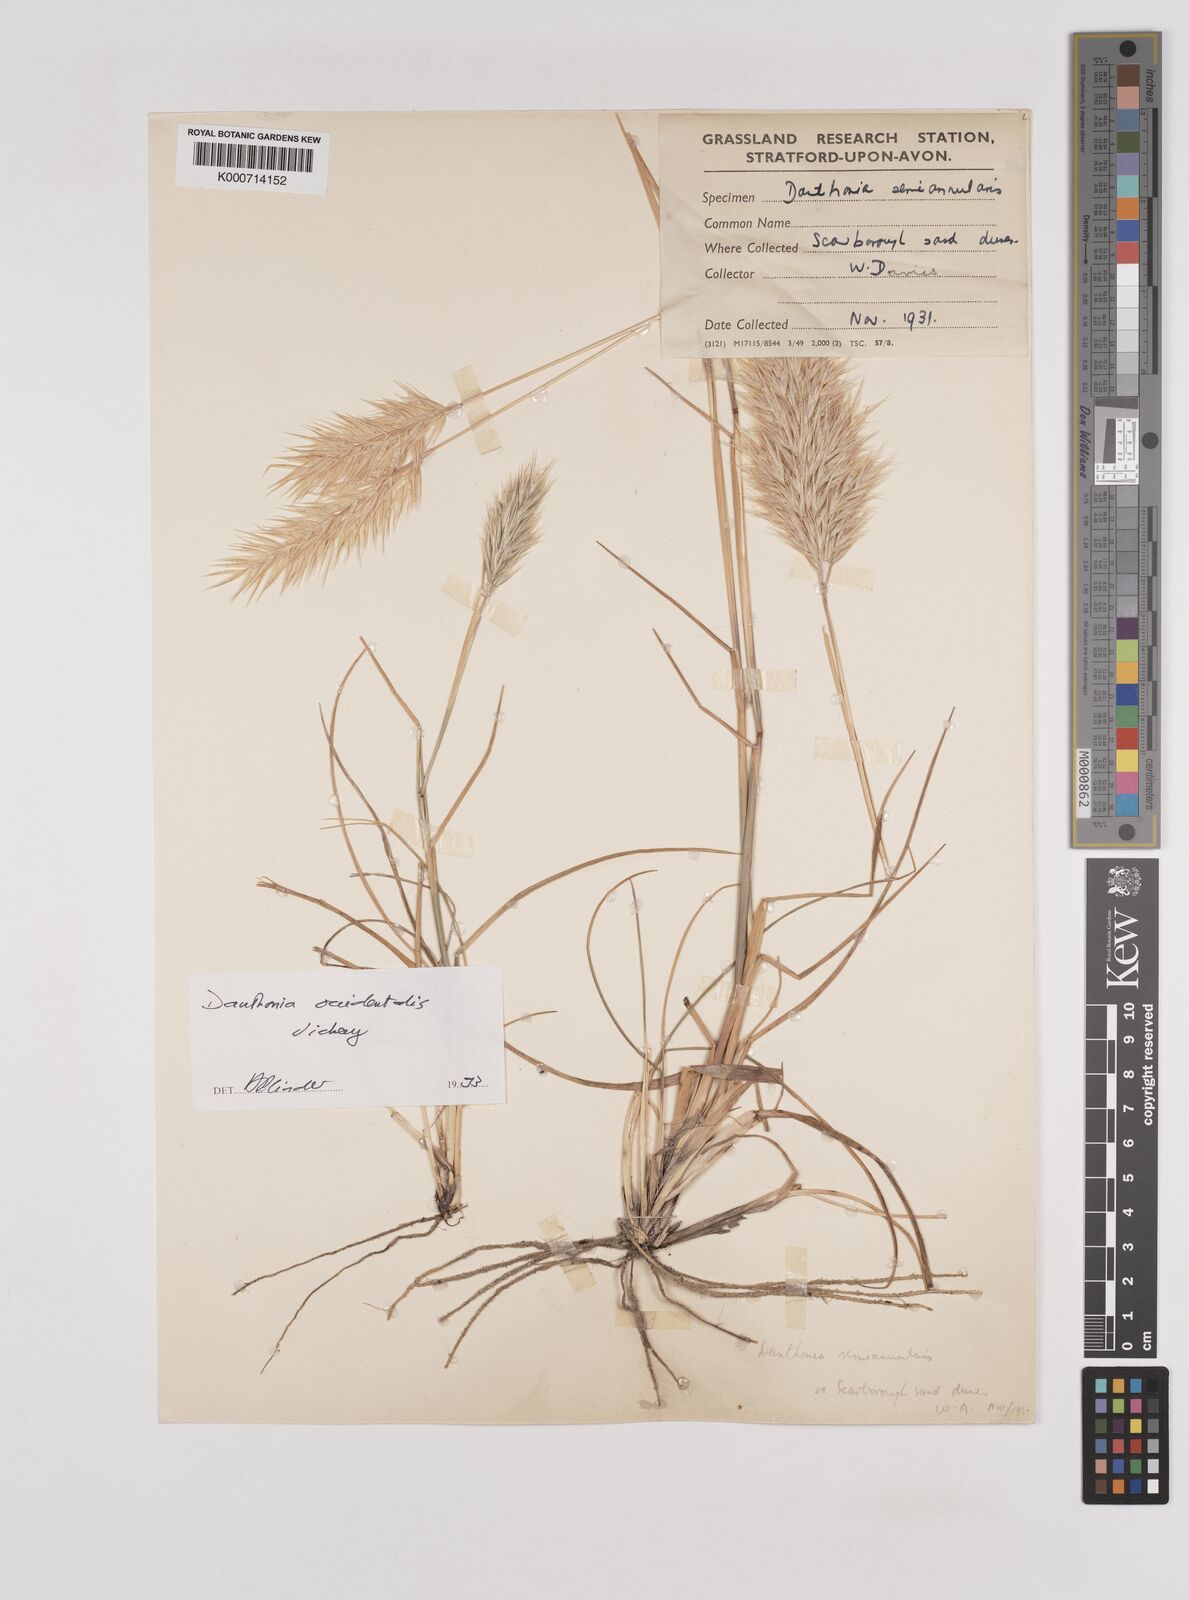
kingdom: Plantae
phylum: Tracheophyta
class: Liliopsida
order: Poales
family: Poaceae
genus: Rytidosperma
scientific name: Rytidosperma
